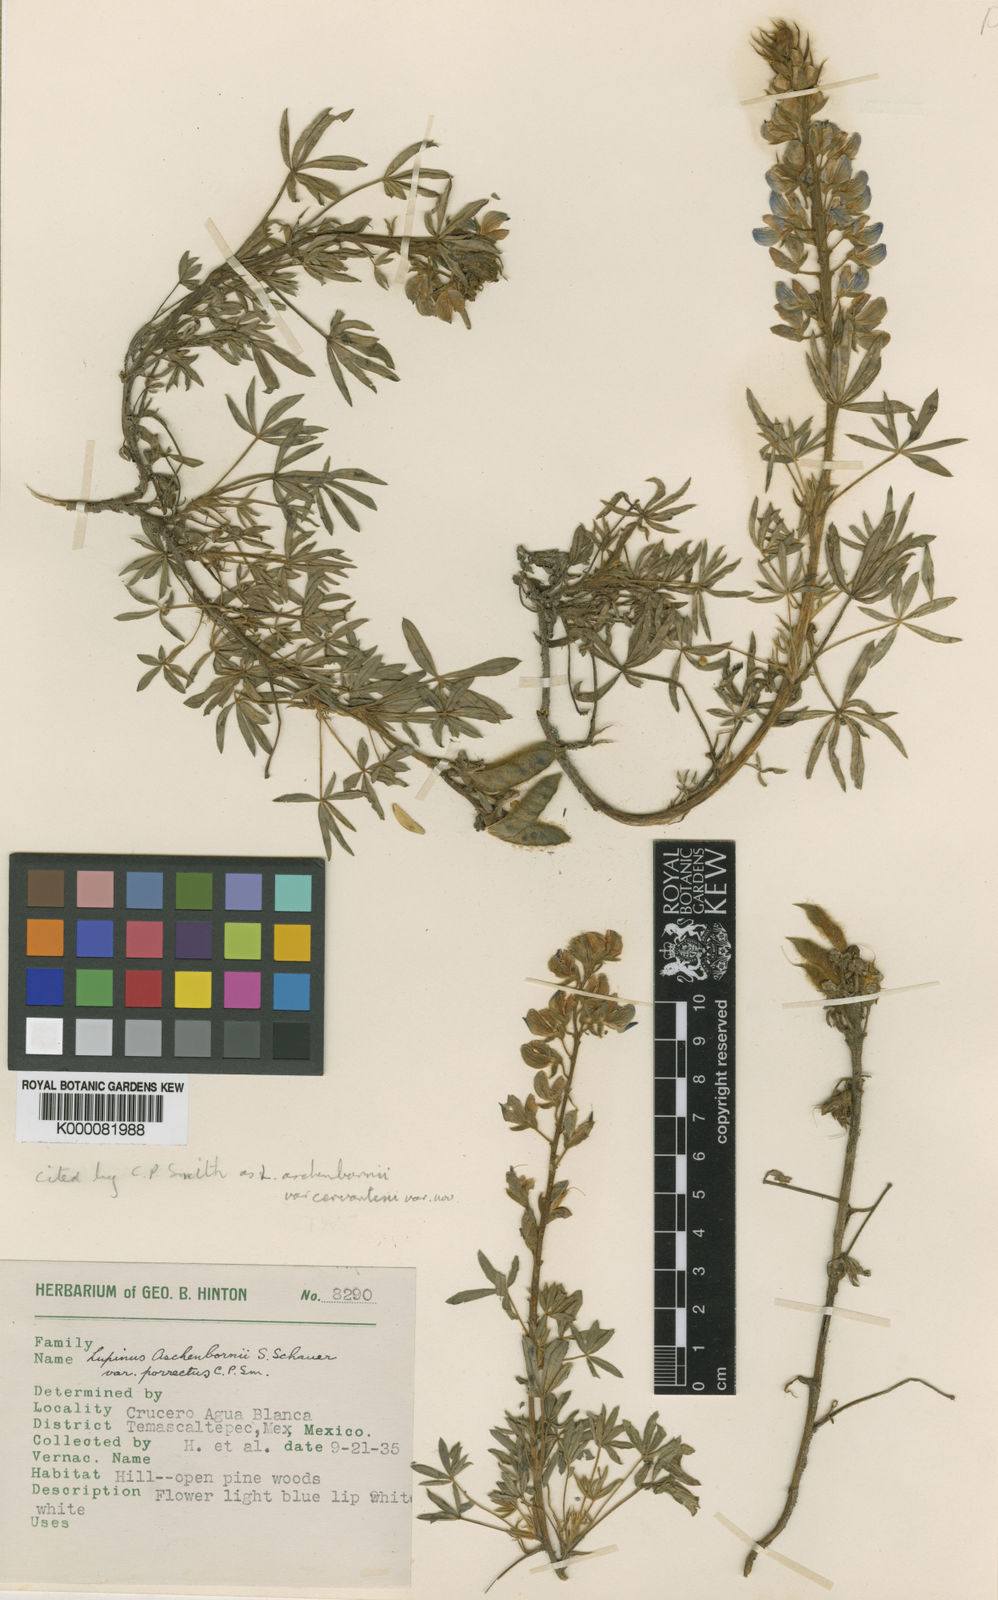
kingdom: Plantae
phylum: Tracheophyta
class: Magnoliopsida
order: Fabales
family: Fabaceae
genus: Lupinus
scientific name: Lupinus aschenbornii
